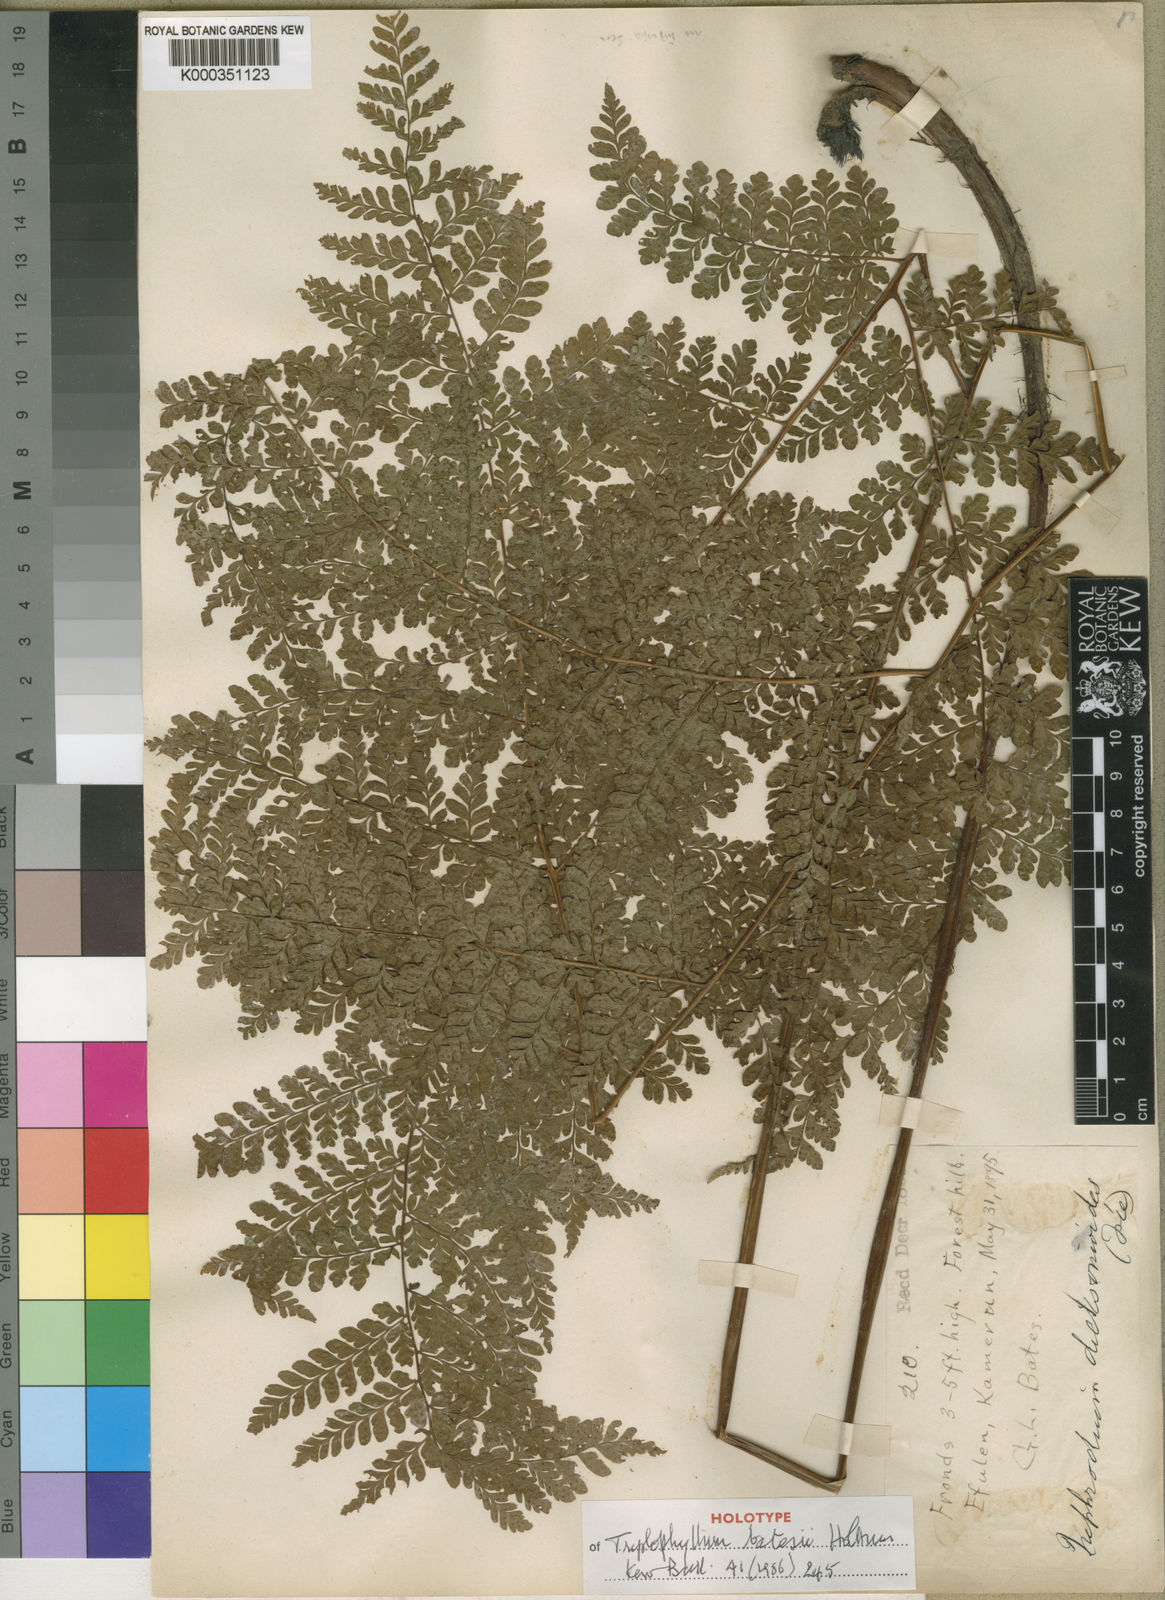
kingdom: Plantae
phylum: Tracheophyta
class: Polypodiopsida
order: Polypodiales
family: Tectariaceae
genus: Triplophyllum
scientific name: Triplophyllum batesii
